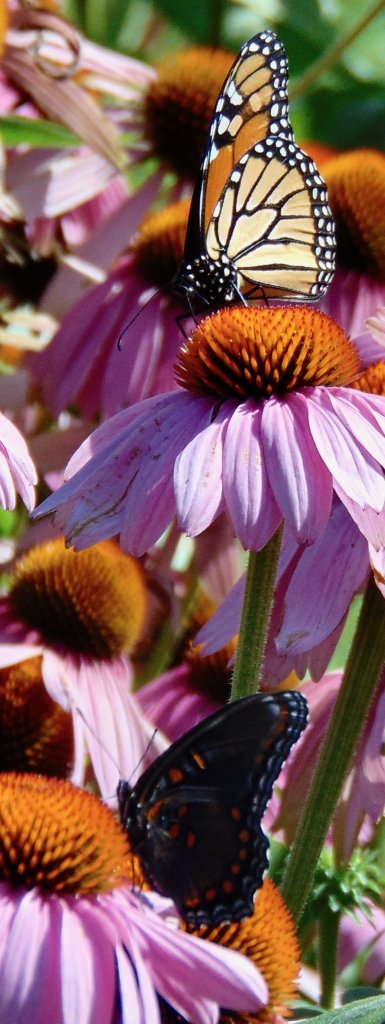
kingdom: Animalia
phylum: Arthropoda
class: Insecta
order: Lepidoptera
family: Nymphalidae
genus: Danaus
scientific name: Danaus plexippus
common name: Monarch
